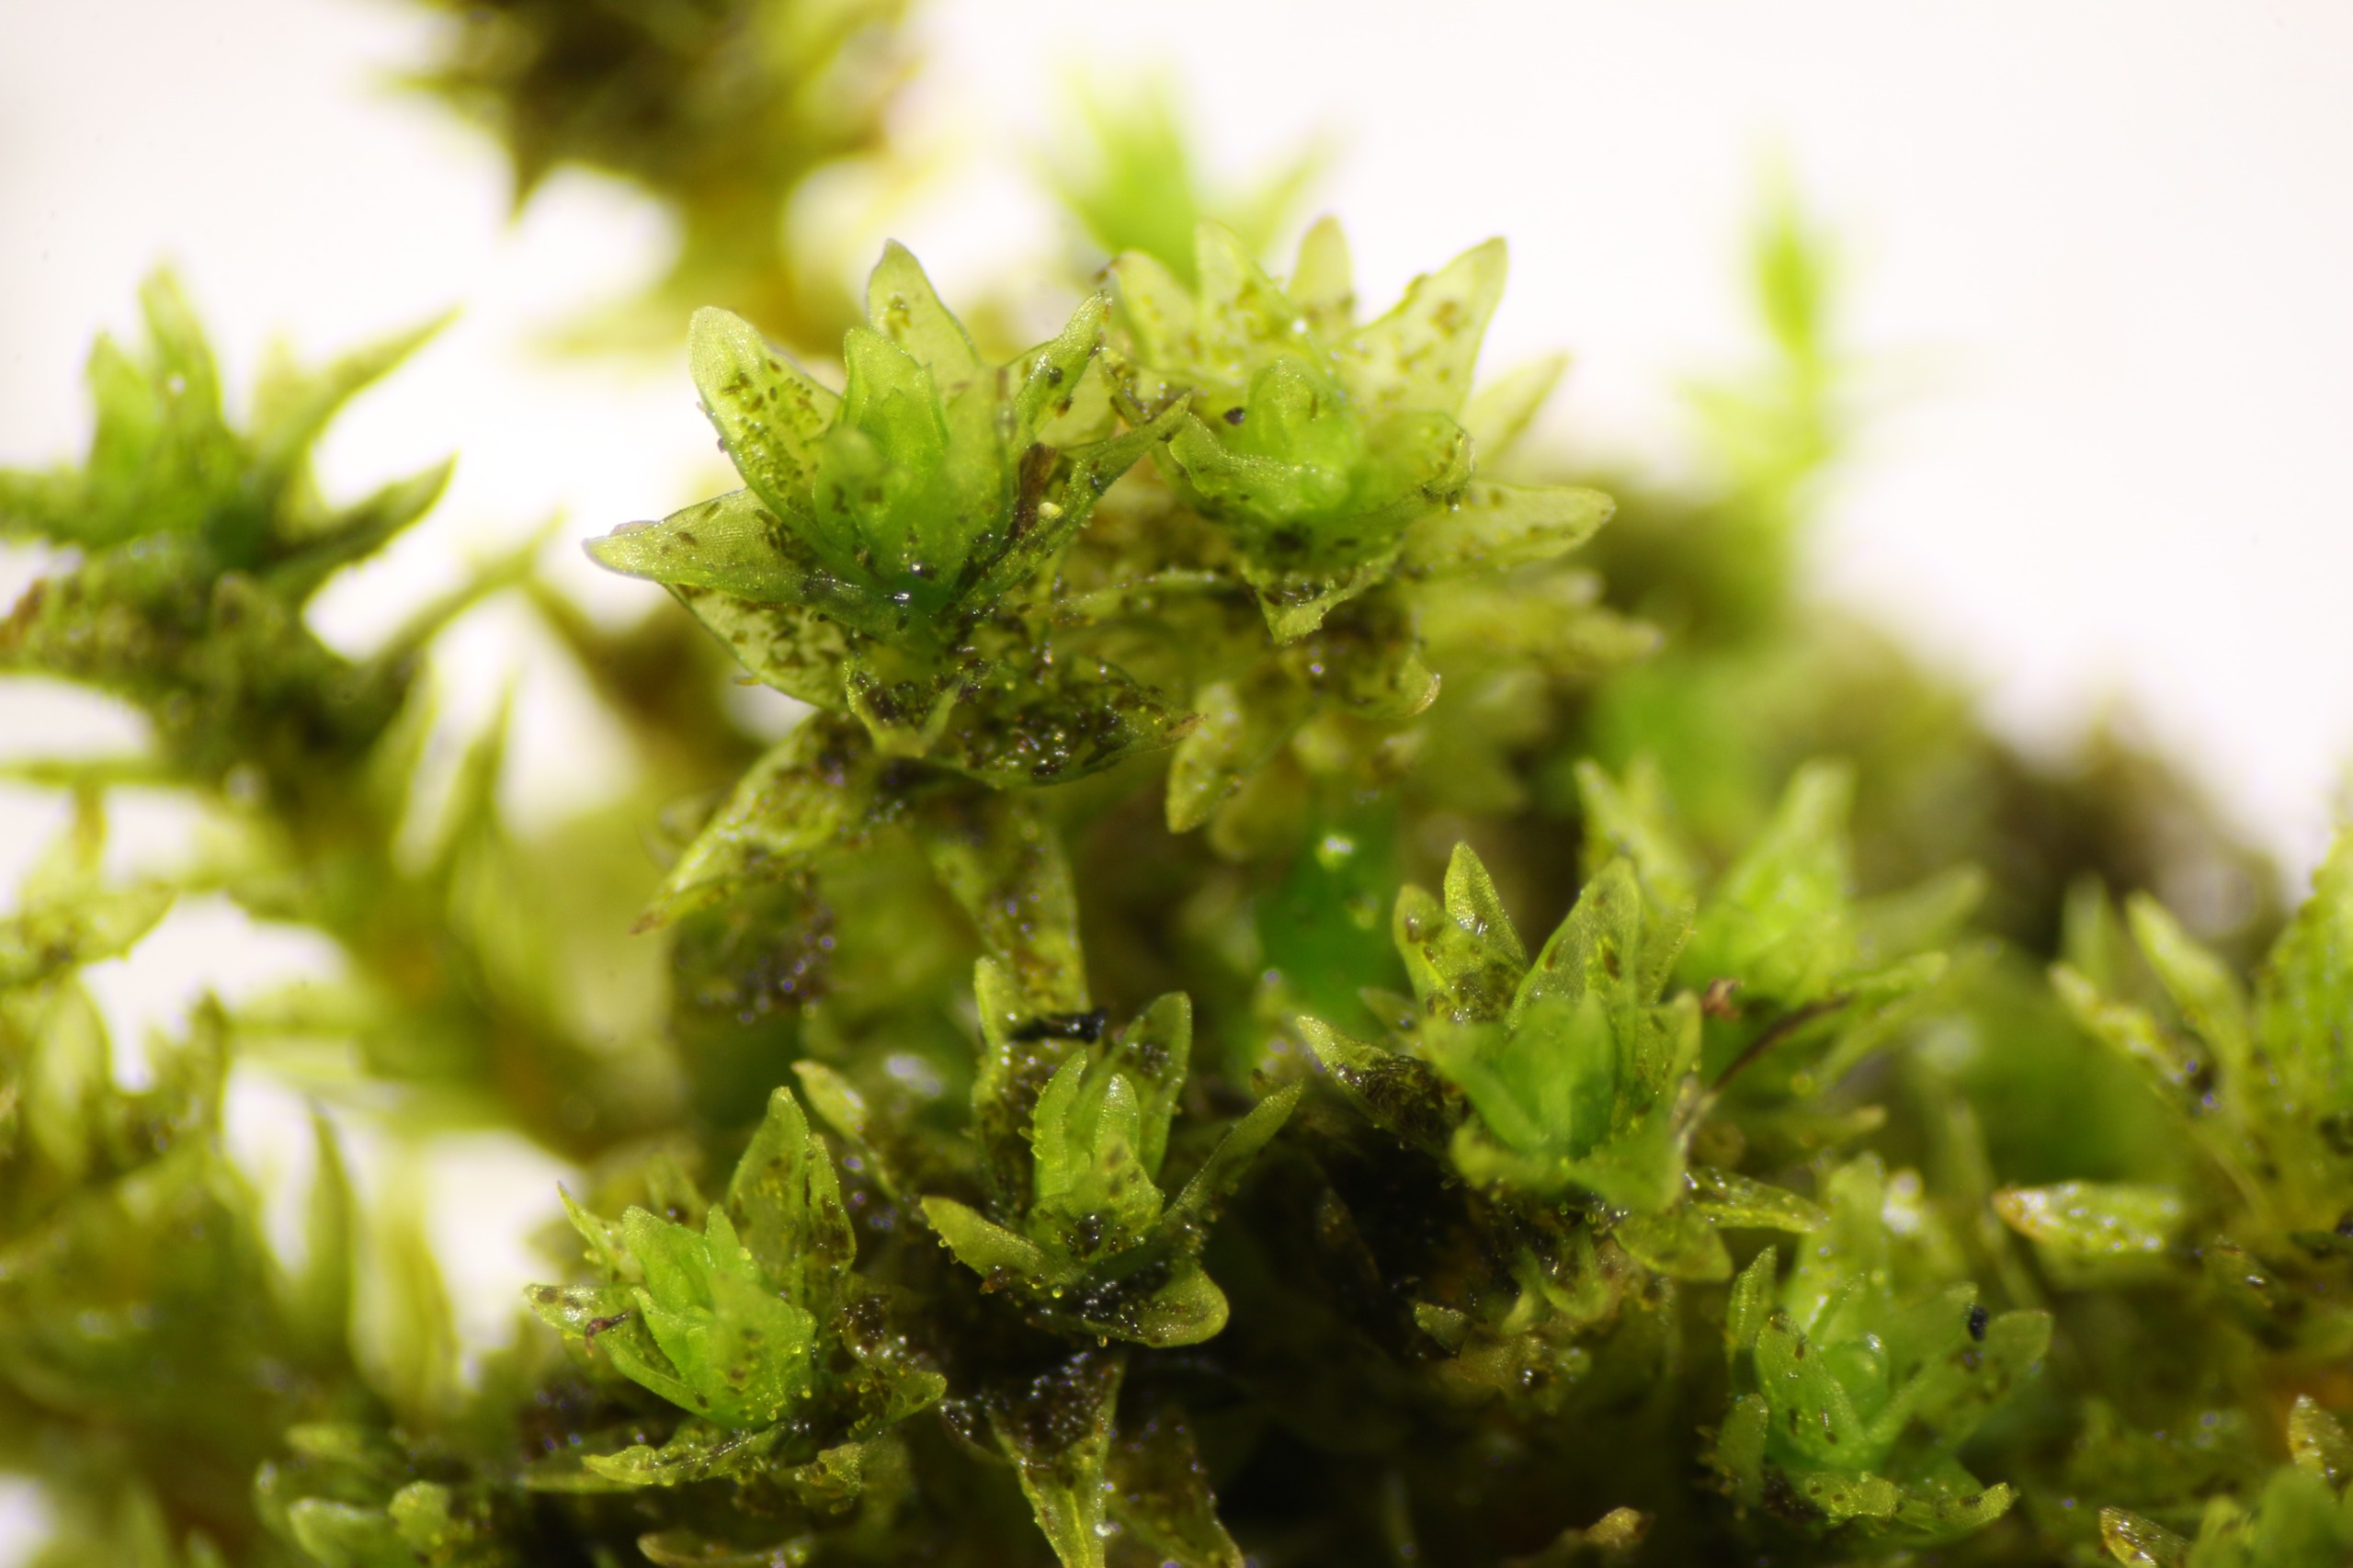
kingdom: Plantae
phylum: Bryophyta
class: Bryopsida
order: Orthotrichales
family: Orthotrichaceae
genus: Nyholmiella
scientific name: Nyholmiella obtusifolia
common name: Butbladet furehætte
